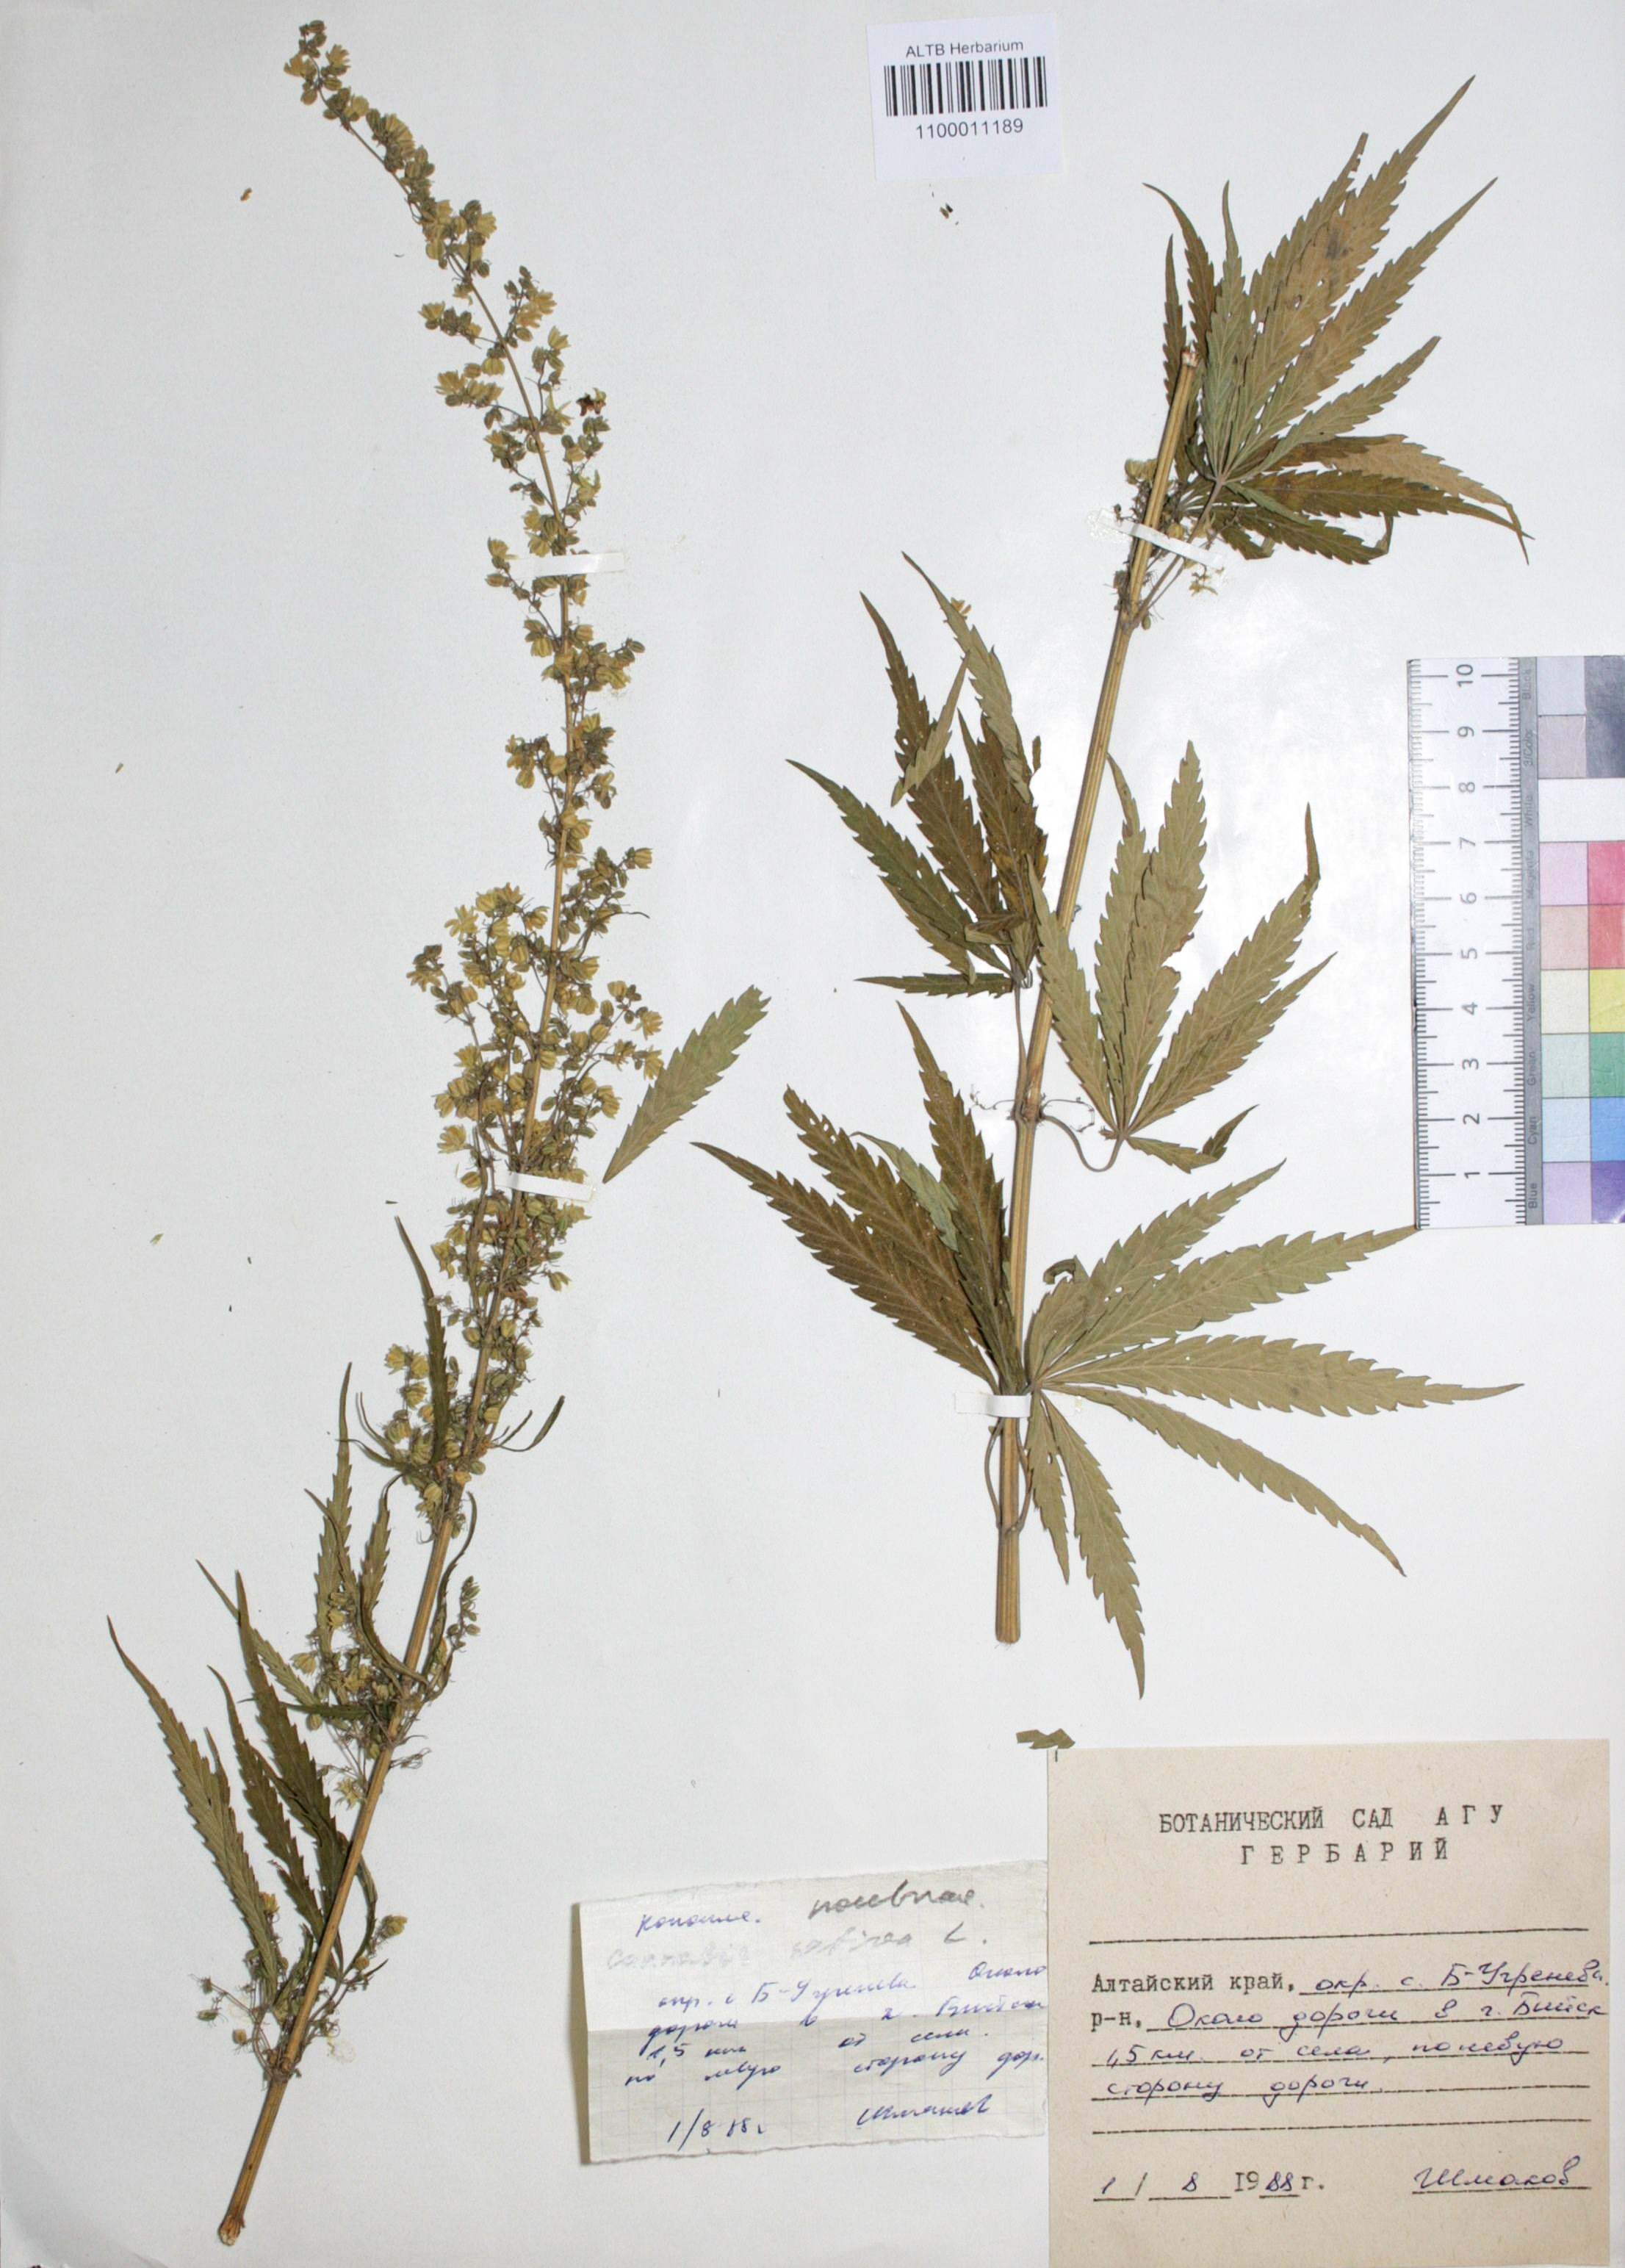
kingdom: Plantae
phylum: Tracheophyta
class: Magnoliopsida
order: Rosales
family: Cannabaceae
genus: Cannabis
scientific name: Cannabis sativa
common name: Hemp
